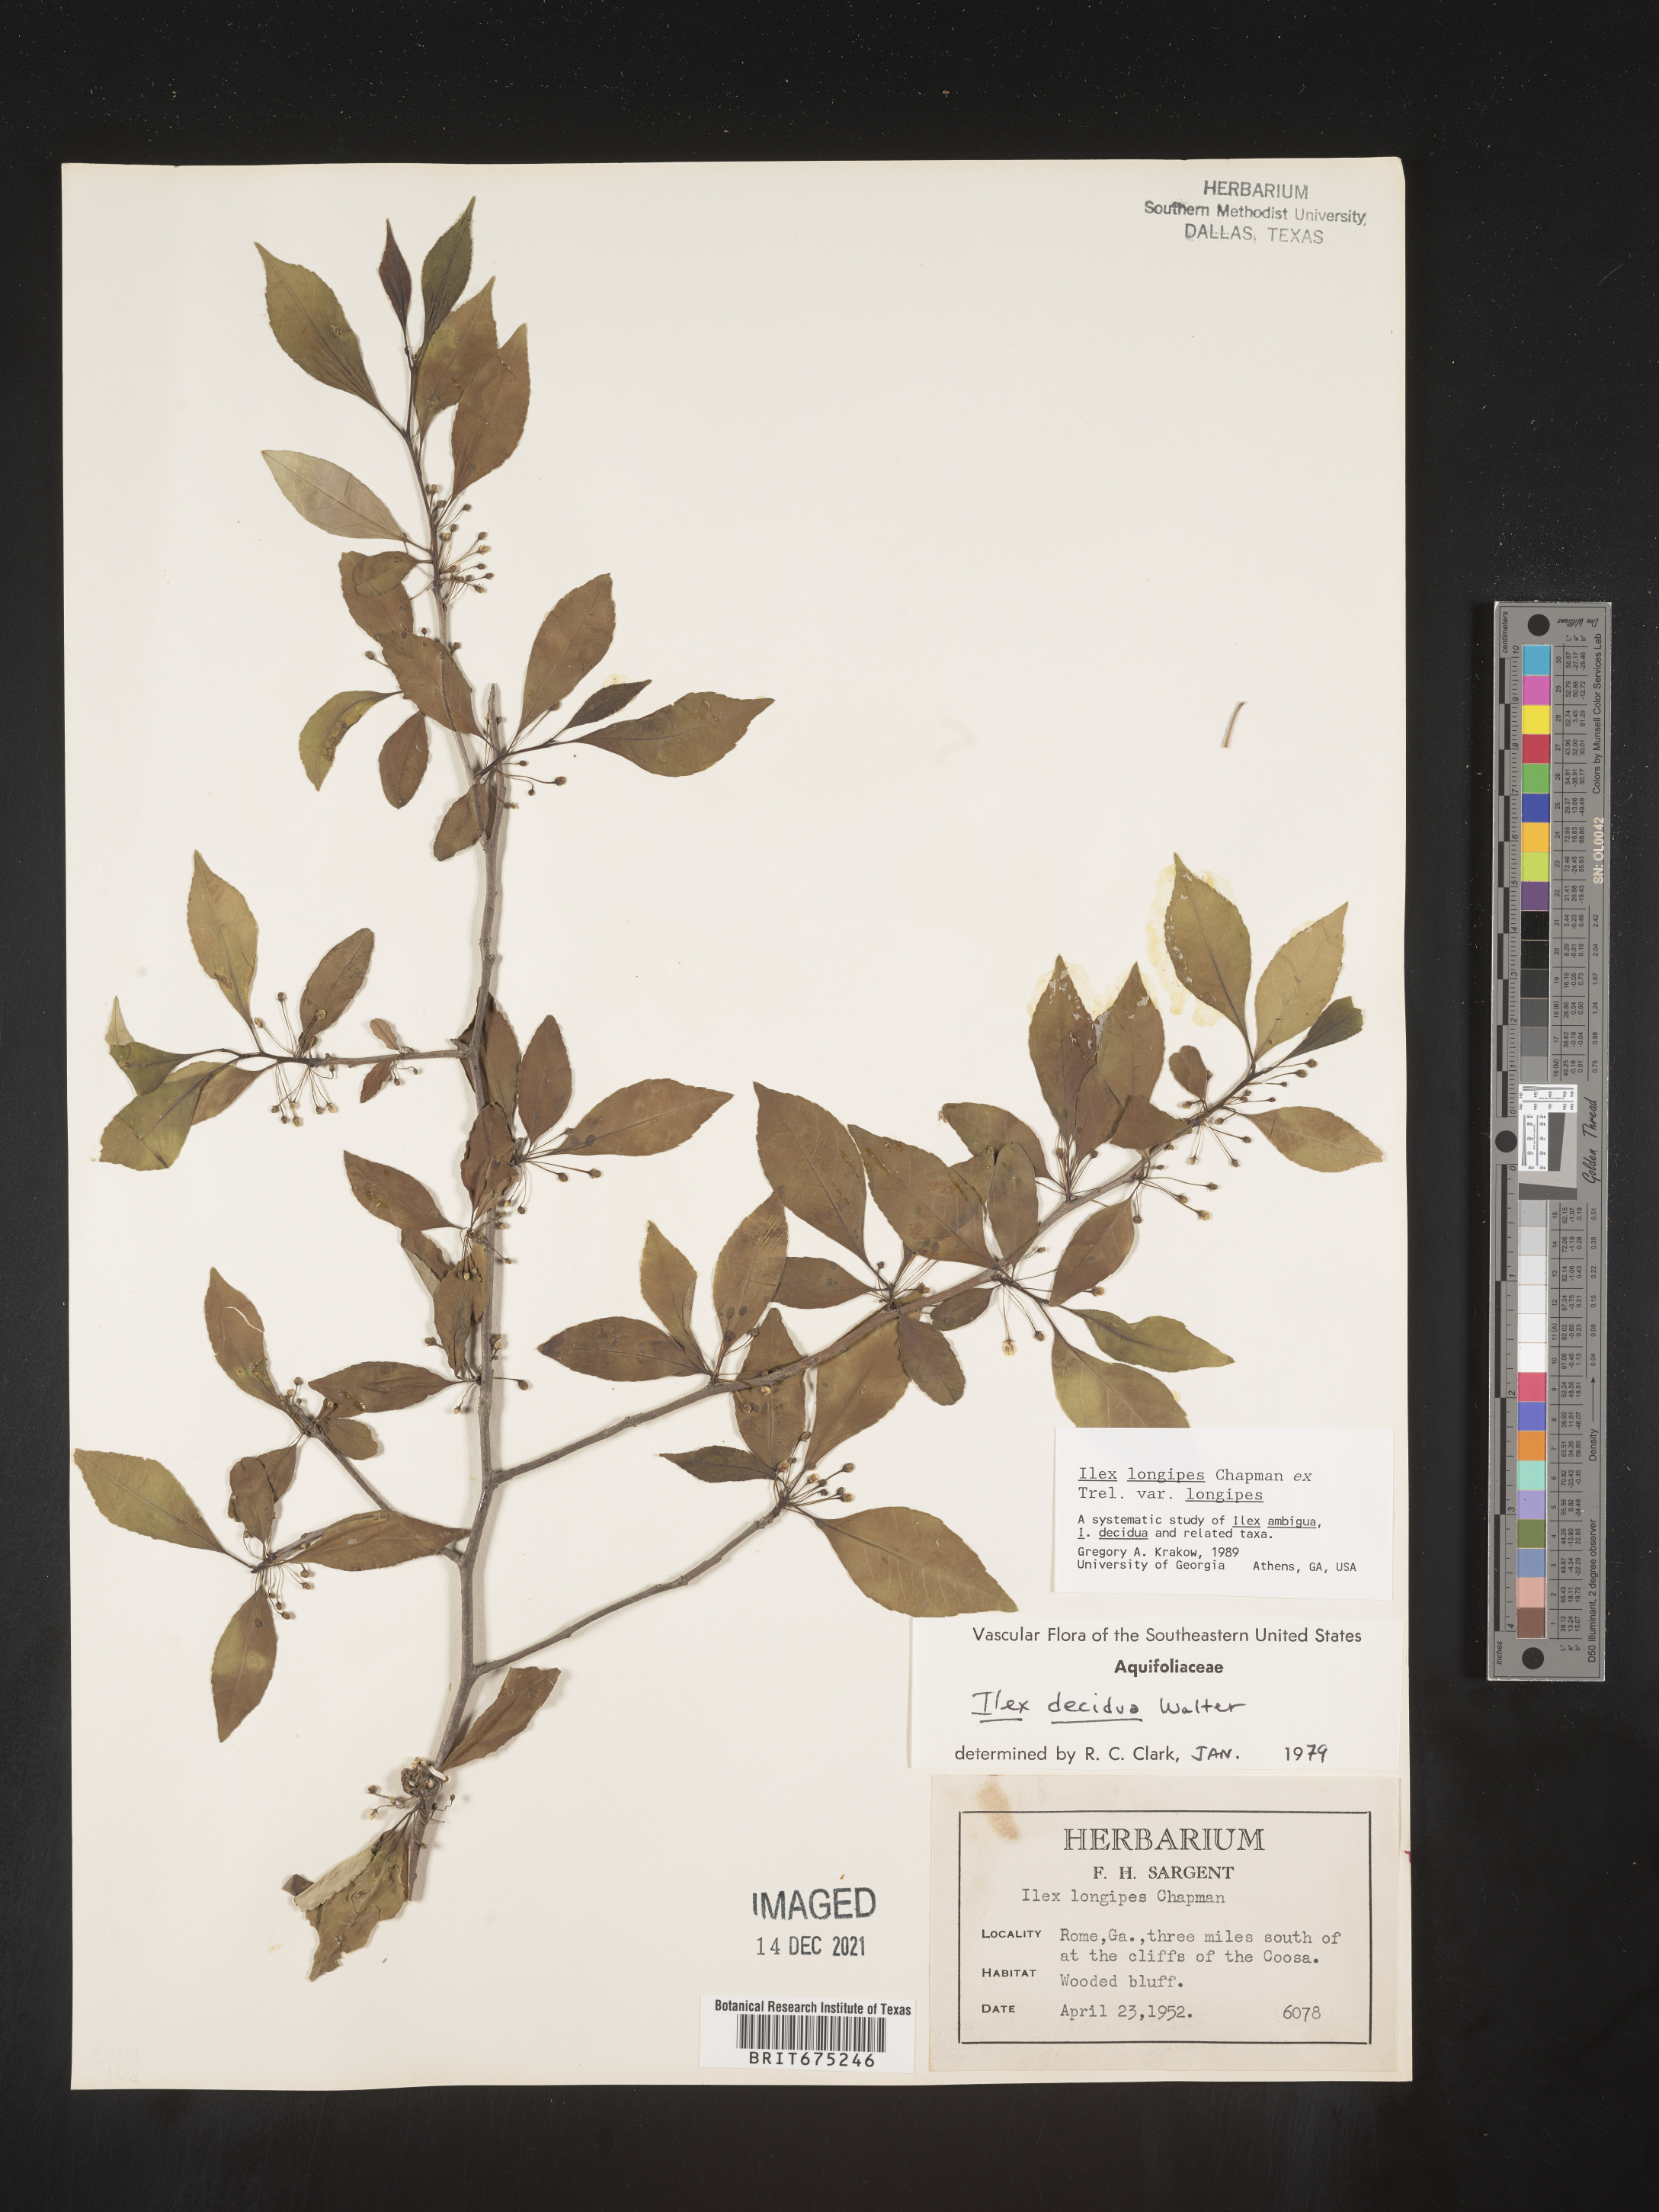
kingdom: Plantae
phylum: Tracheophyta
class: Magnoliopsida
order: Aquifoliales
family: Aquifoliaceae
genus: Ilex
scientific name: Ilex longipes
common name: Georgia holly
